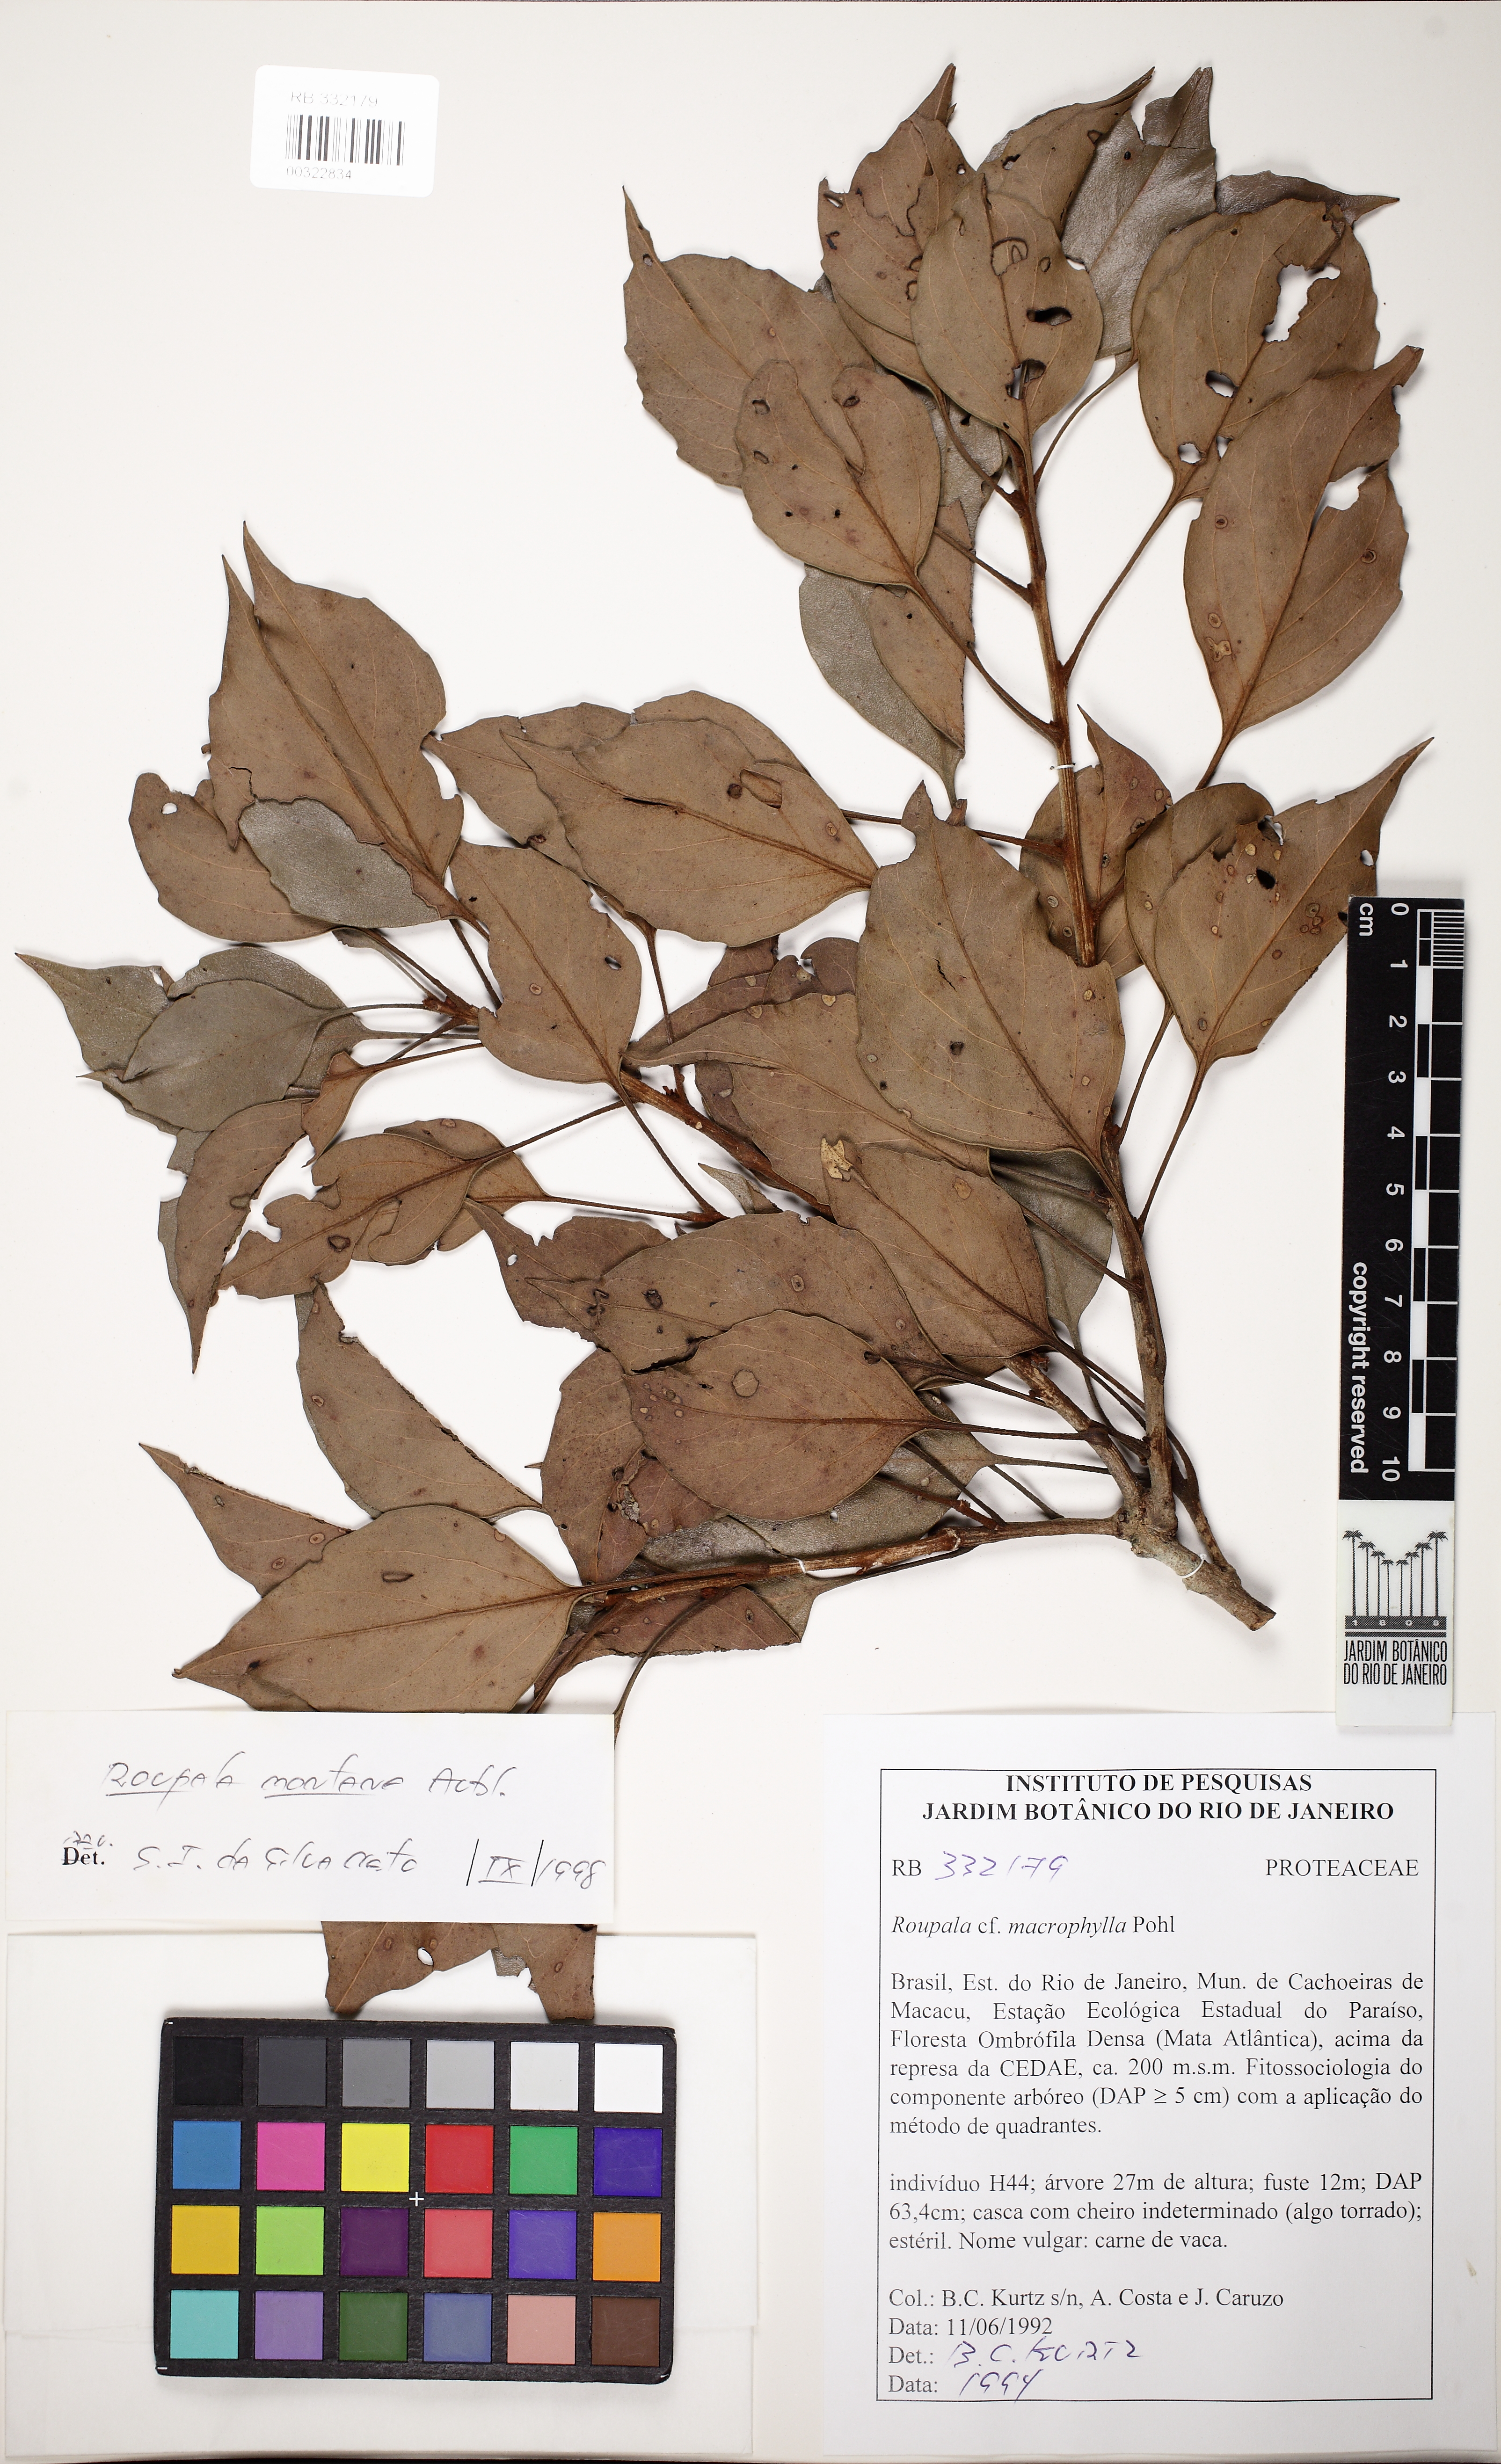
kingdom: Plantae
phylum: Tracheophyta
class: Magnoliopsida
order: Proteales
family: Proteaceae
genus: Roupala
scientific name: Roupala montana
